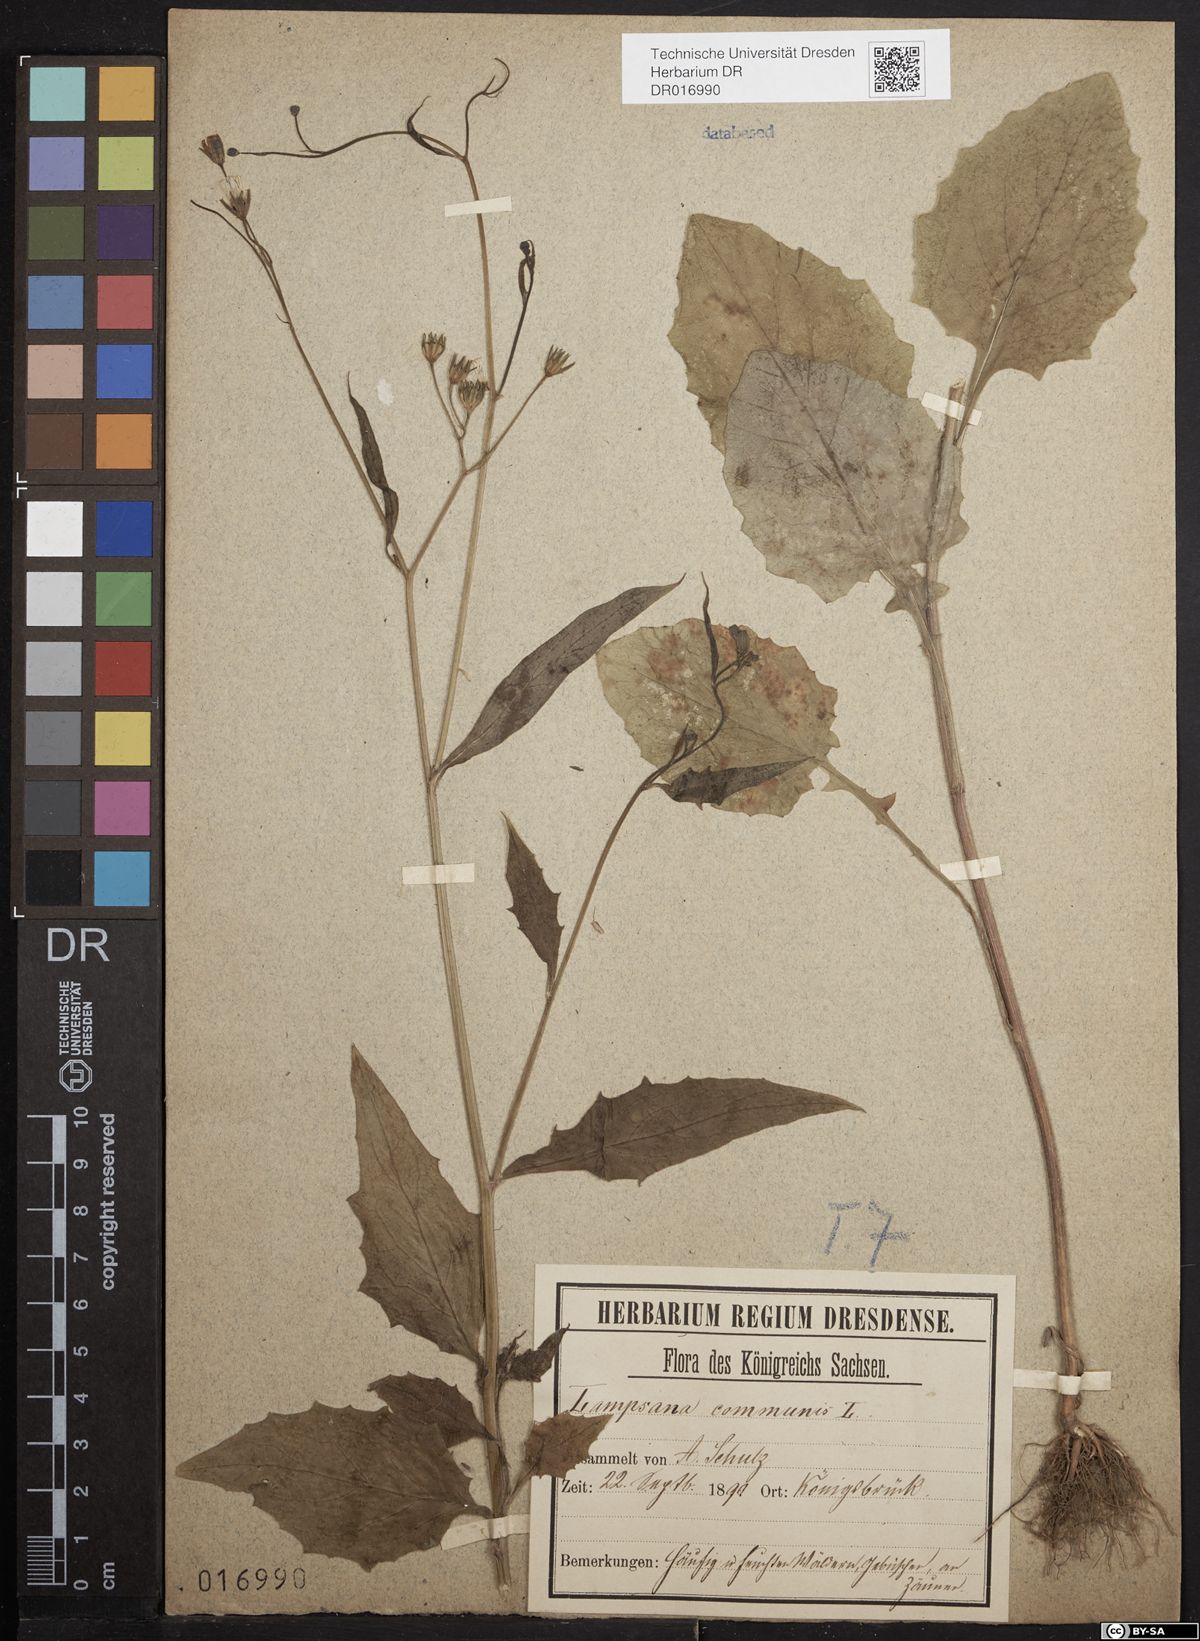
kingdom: Plantae
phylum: Tracheophyta
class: Magnoliopsida
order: Asterales
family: Asteraceae
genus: Lapsana
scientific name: Lapsana communis
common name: Nipplewort
